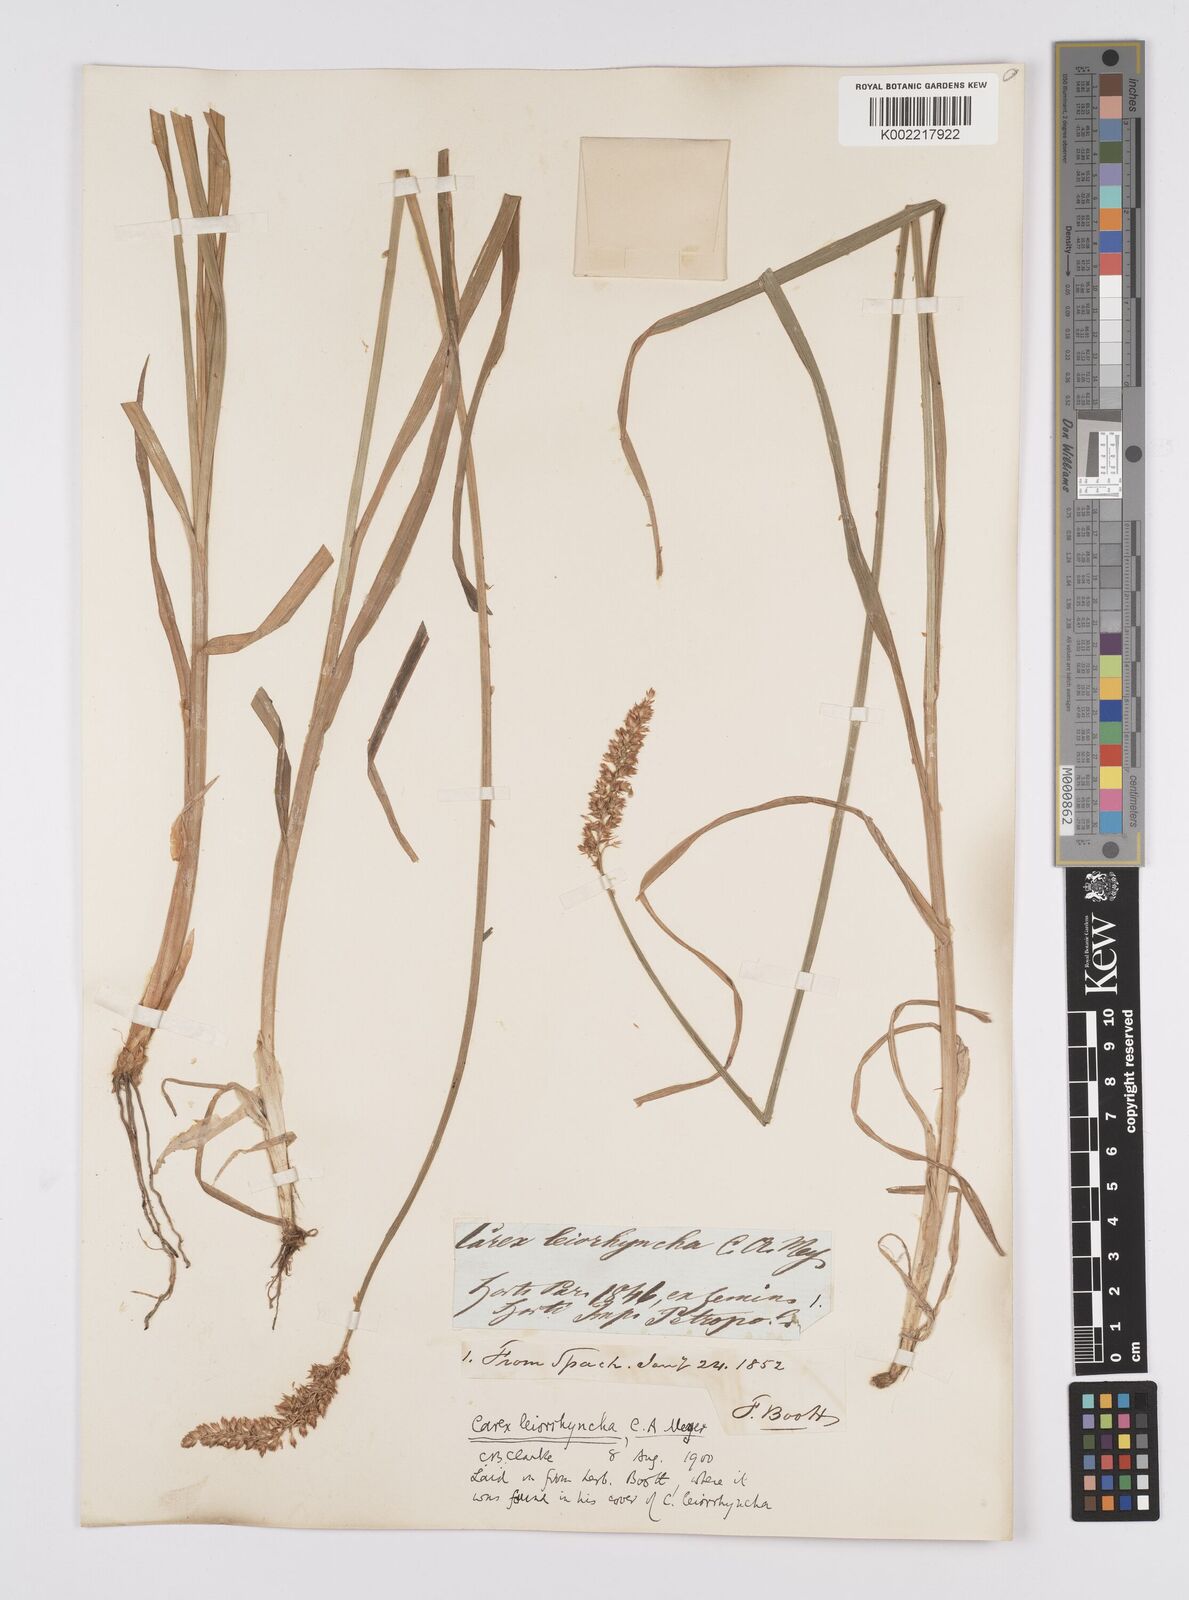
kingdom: Plantae
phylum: Tracheophyta
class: Liliopsida
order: Poales
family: Cyperaceae
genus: Carex
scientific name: Carex leiorhyncha
